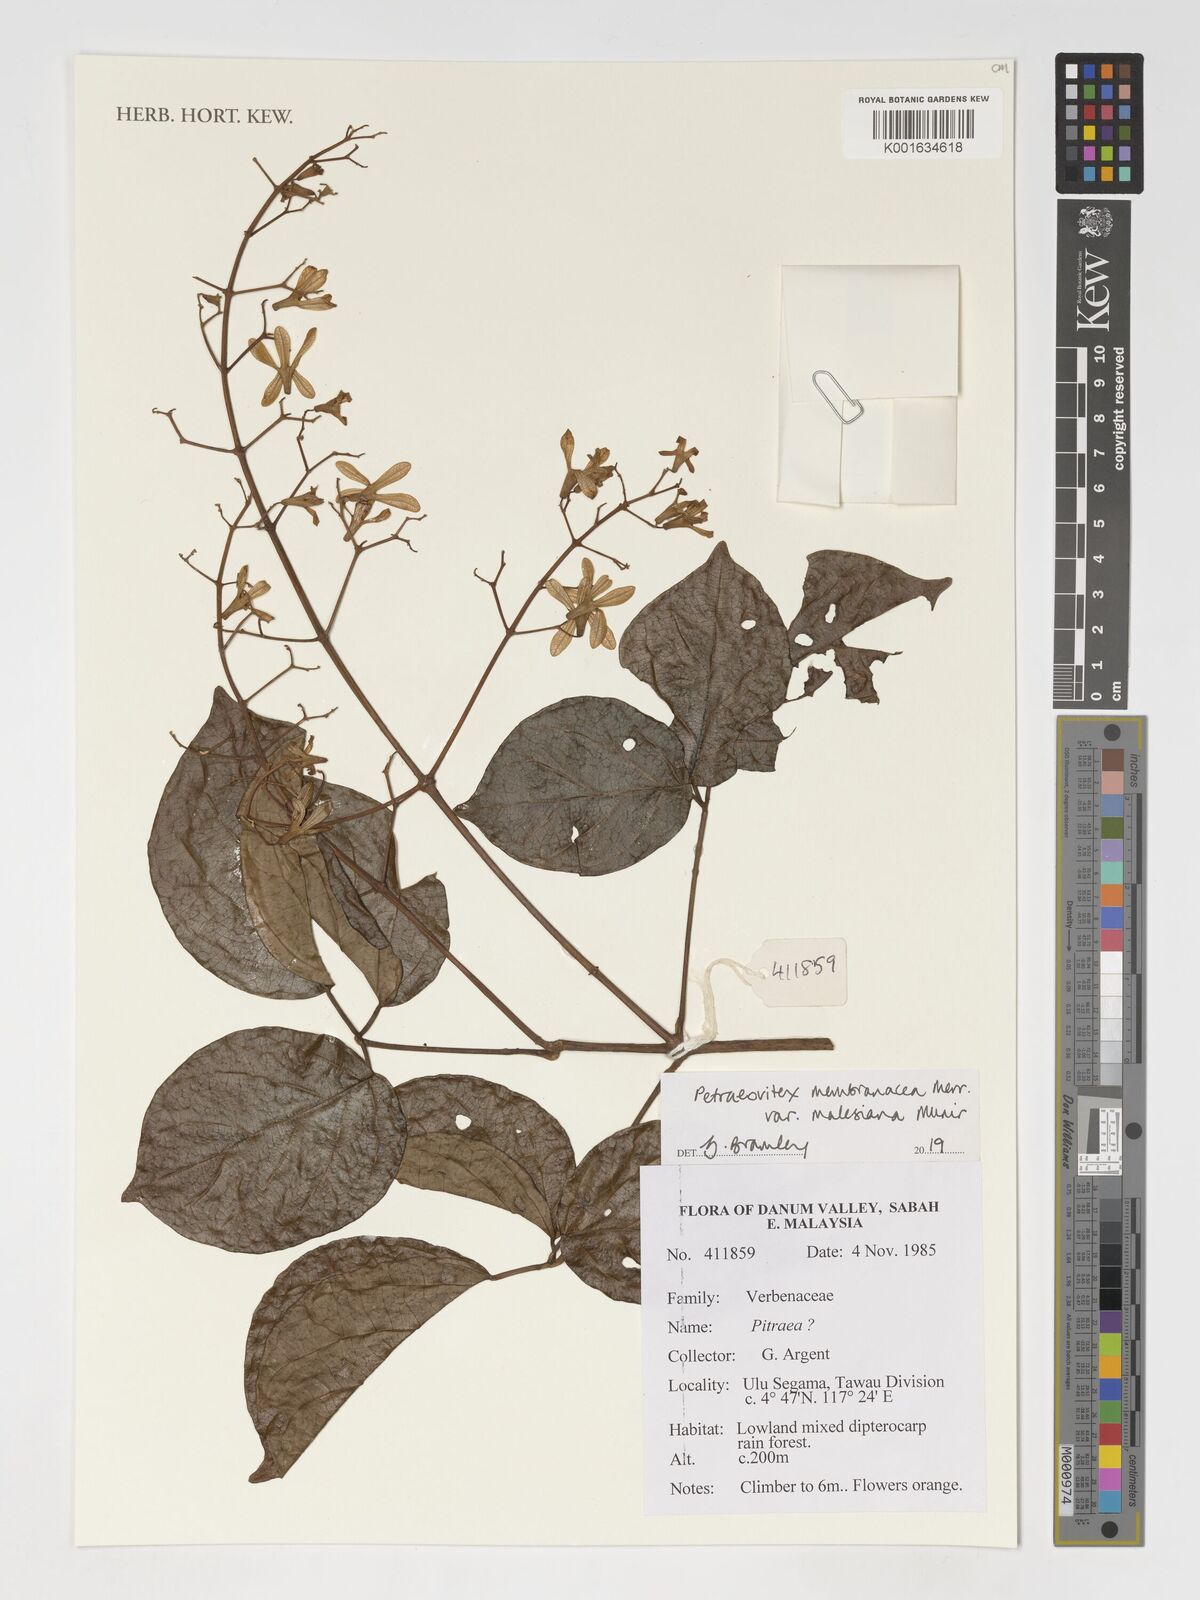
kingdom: Plantae
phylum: Tracheophyta
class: Magnoliopsida
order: Lamiales
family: Lamiaceae
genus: Petraeovitex
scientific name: Petraeovitex membranacea
